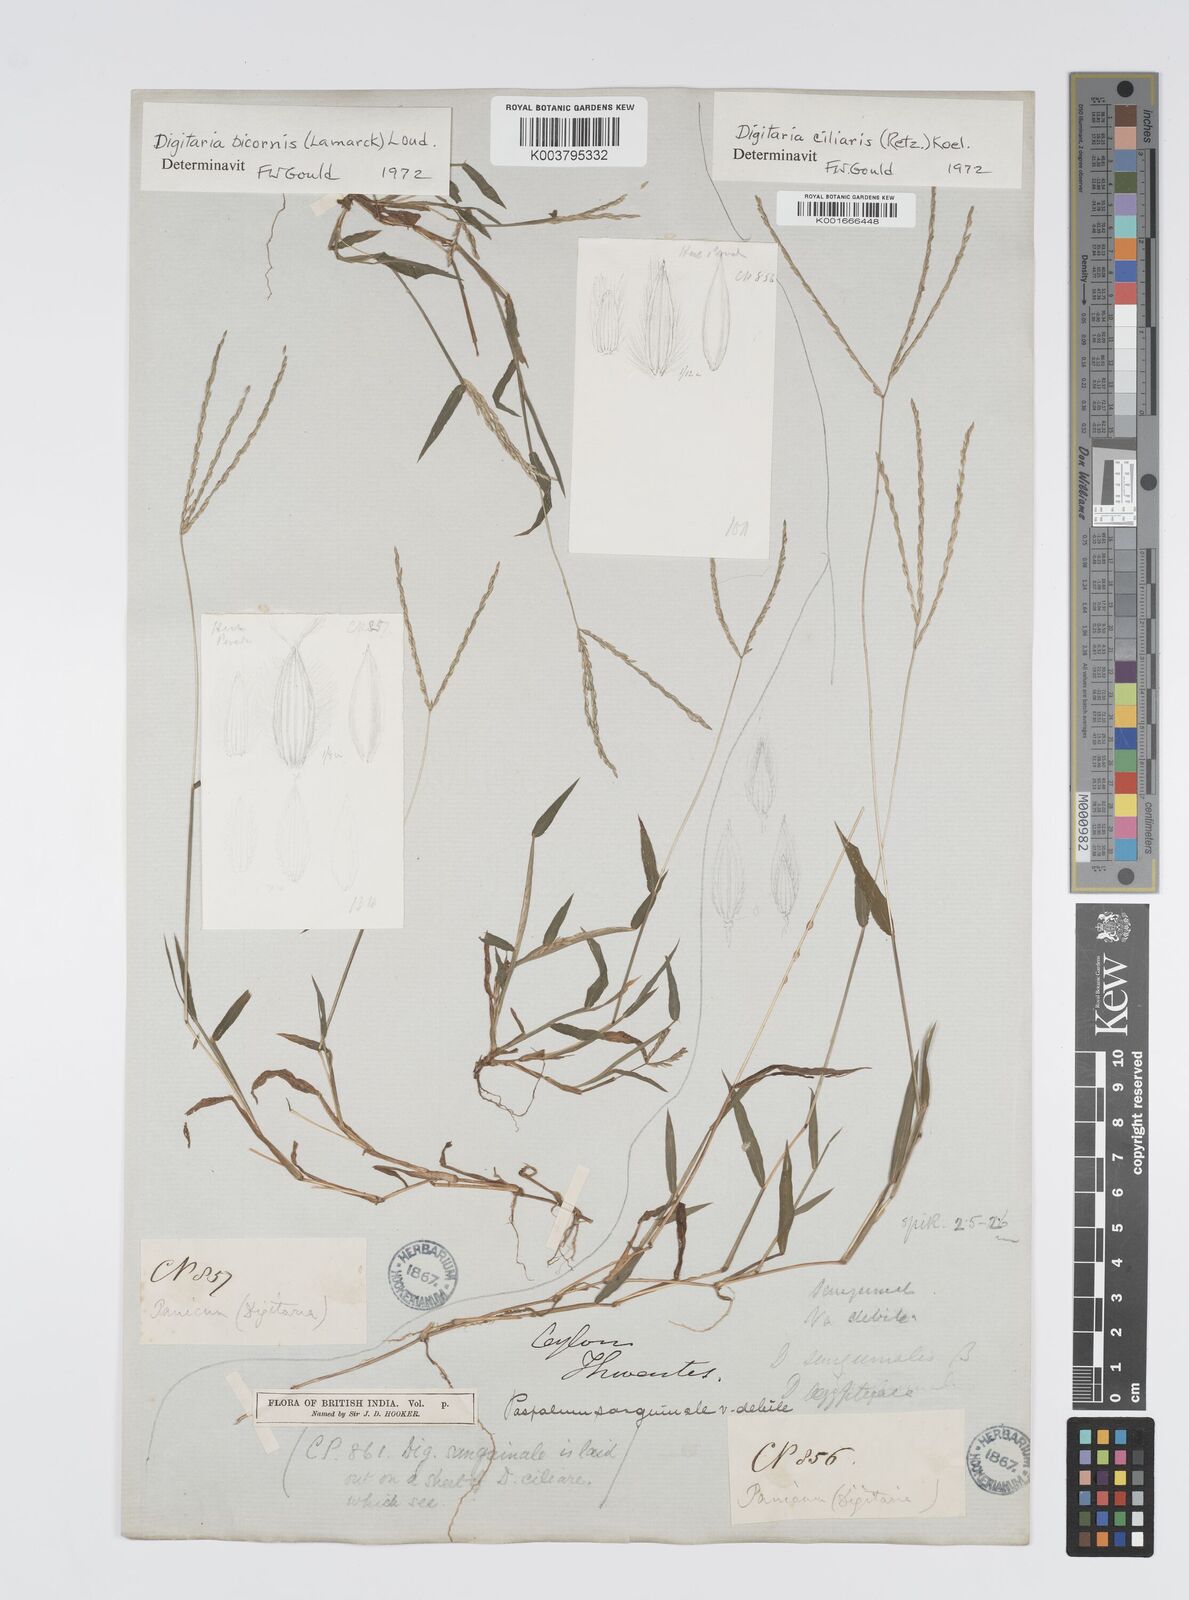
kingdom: Plantae
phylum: Tracheophyta
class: Liliopsida
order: Poales
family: Poaceae
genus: Digitaria
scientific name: Digitaria ciliaris
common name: Tropical finger-grass
